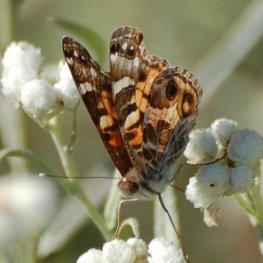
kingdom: Animalia
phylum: Arthropoda
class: Insecta
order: Lepidoptera
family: Nymphalidae
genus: Vanessa
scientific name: Vanessa virginiensis
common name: American Lady
